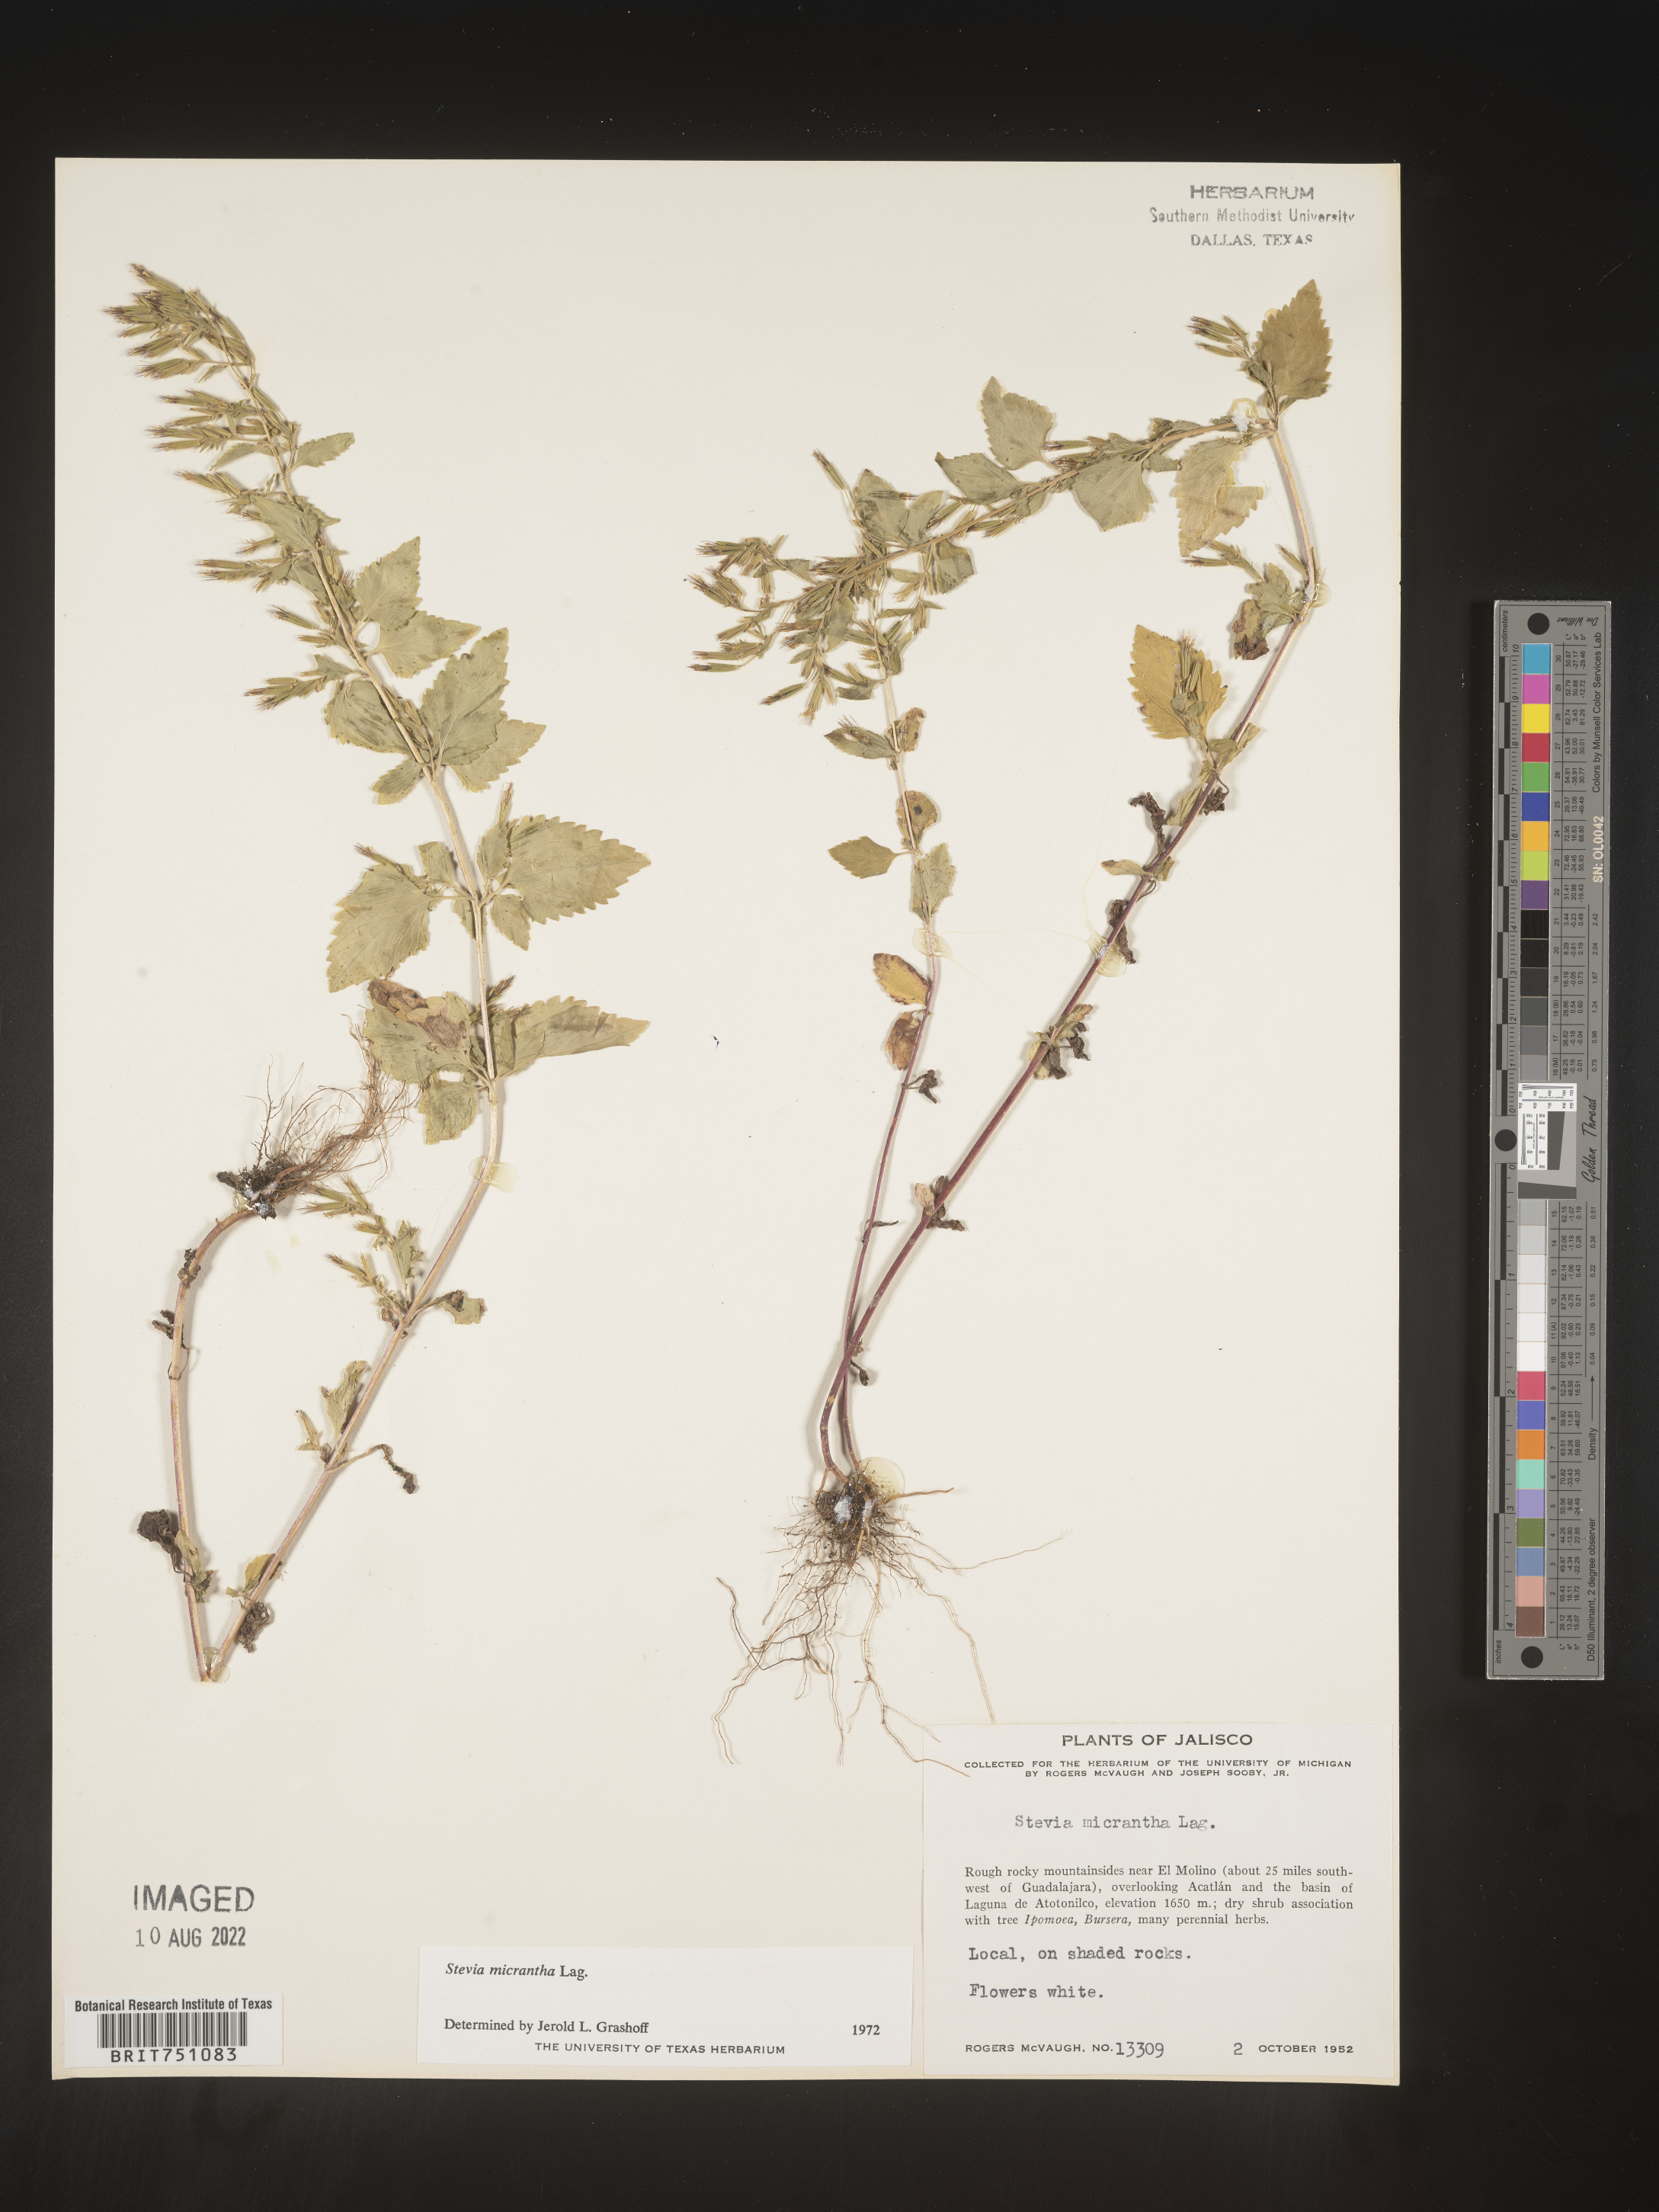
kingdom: Plantae
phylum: Tracheophyta
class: Magnoliopsida
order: Asterales
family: Asteraceae
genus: Stevia
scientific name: Stevia
